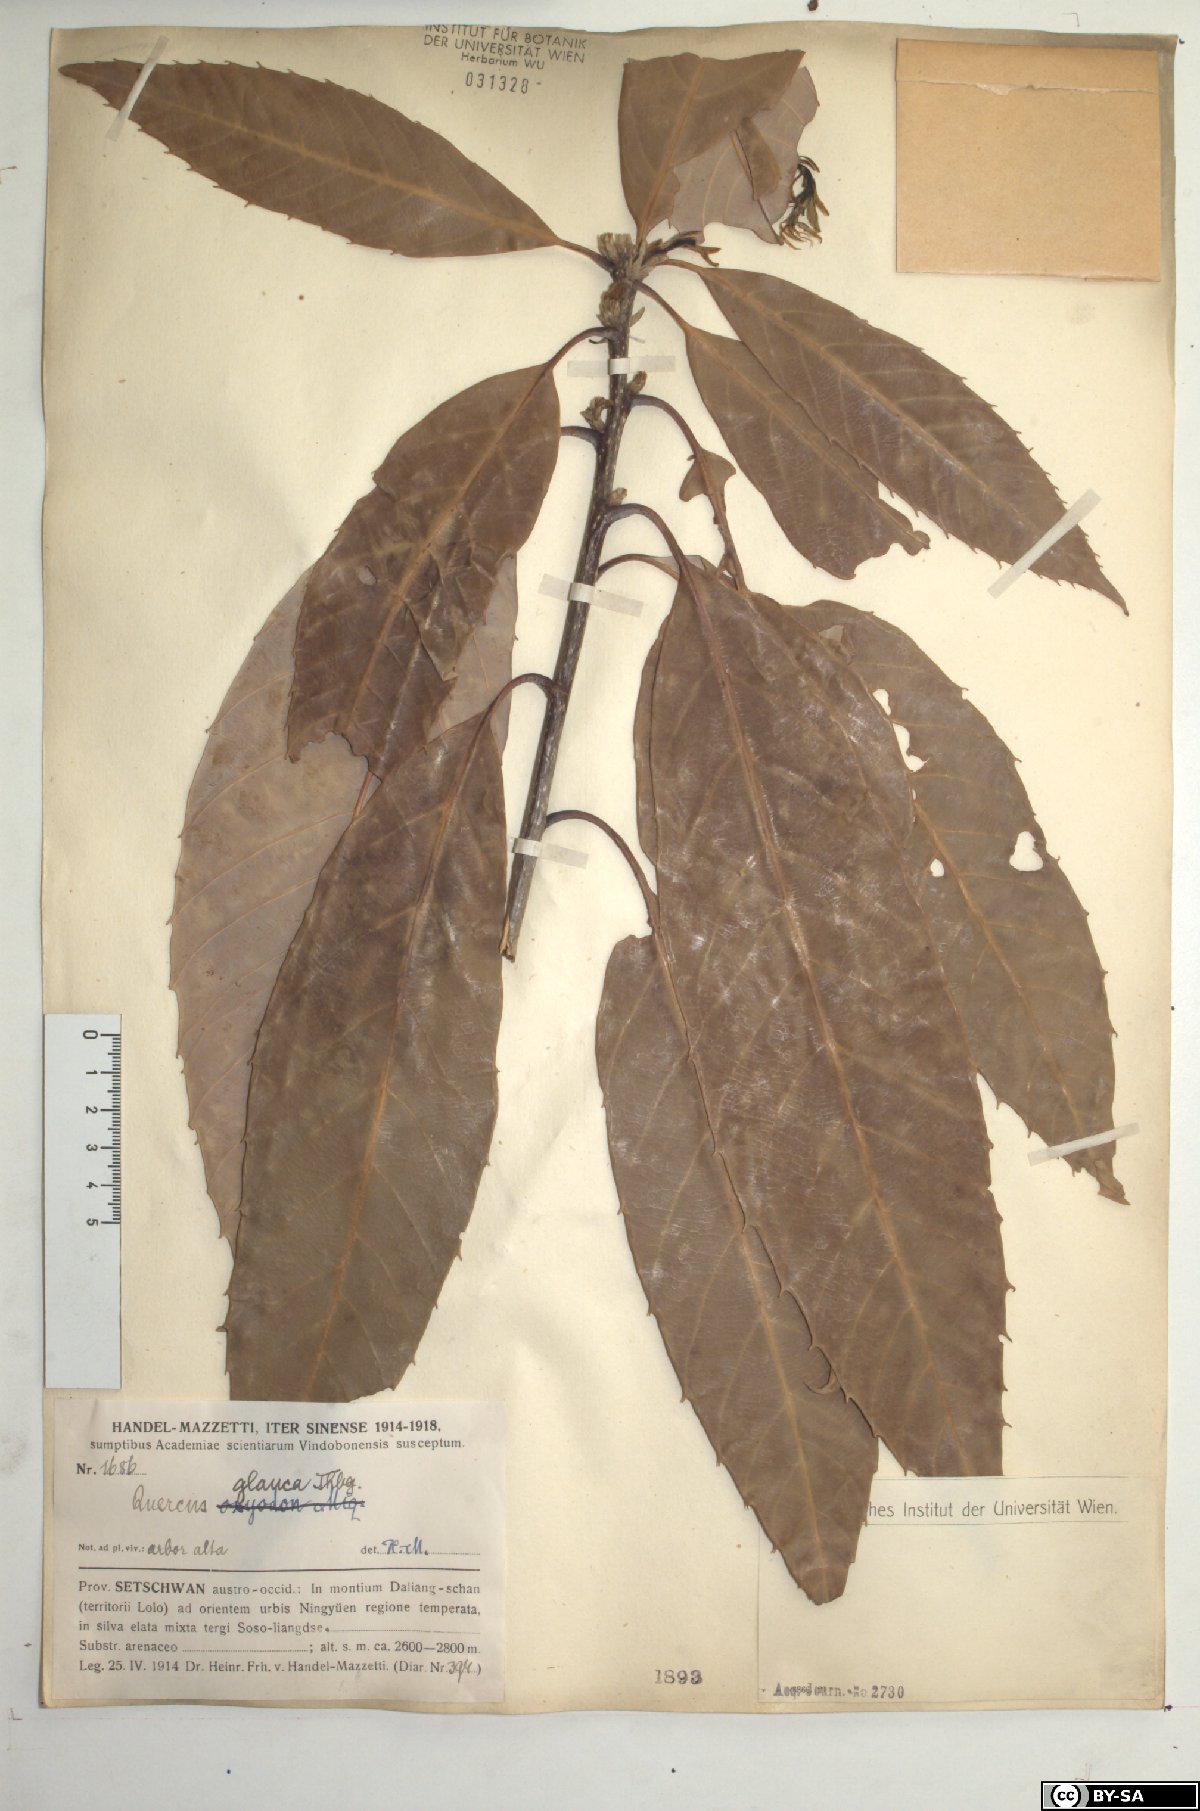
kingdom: Plantae
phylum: Tracheophyta
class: Magnoliopsida
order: Fagales
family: Fagaceae
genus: Quercus
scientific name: Quercus glauca
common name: Ring-cup oak
